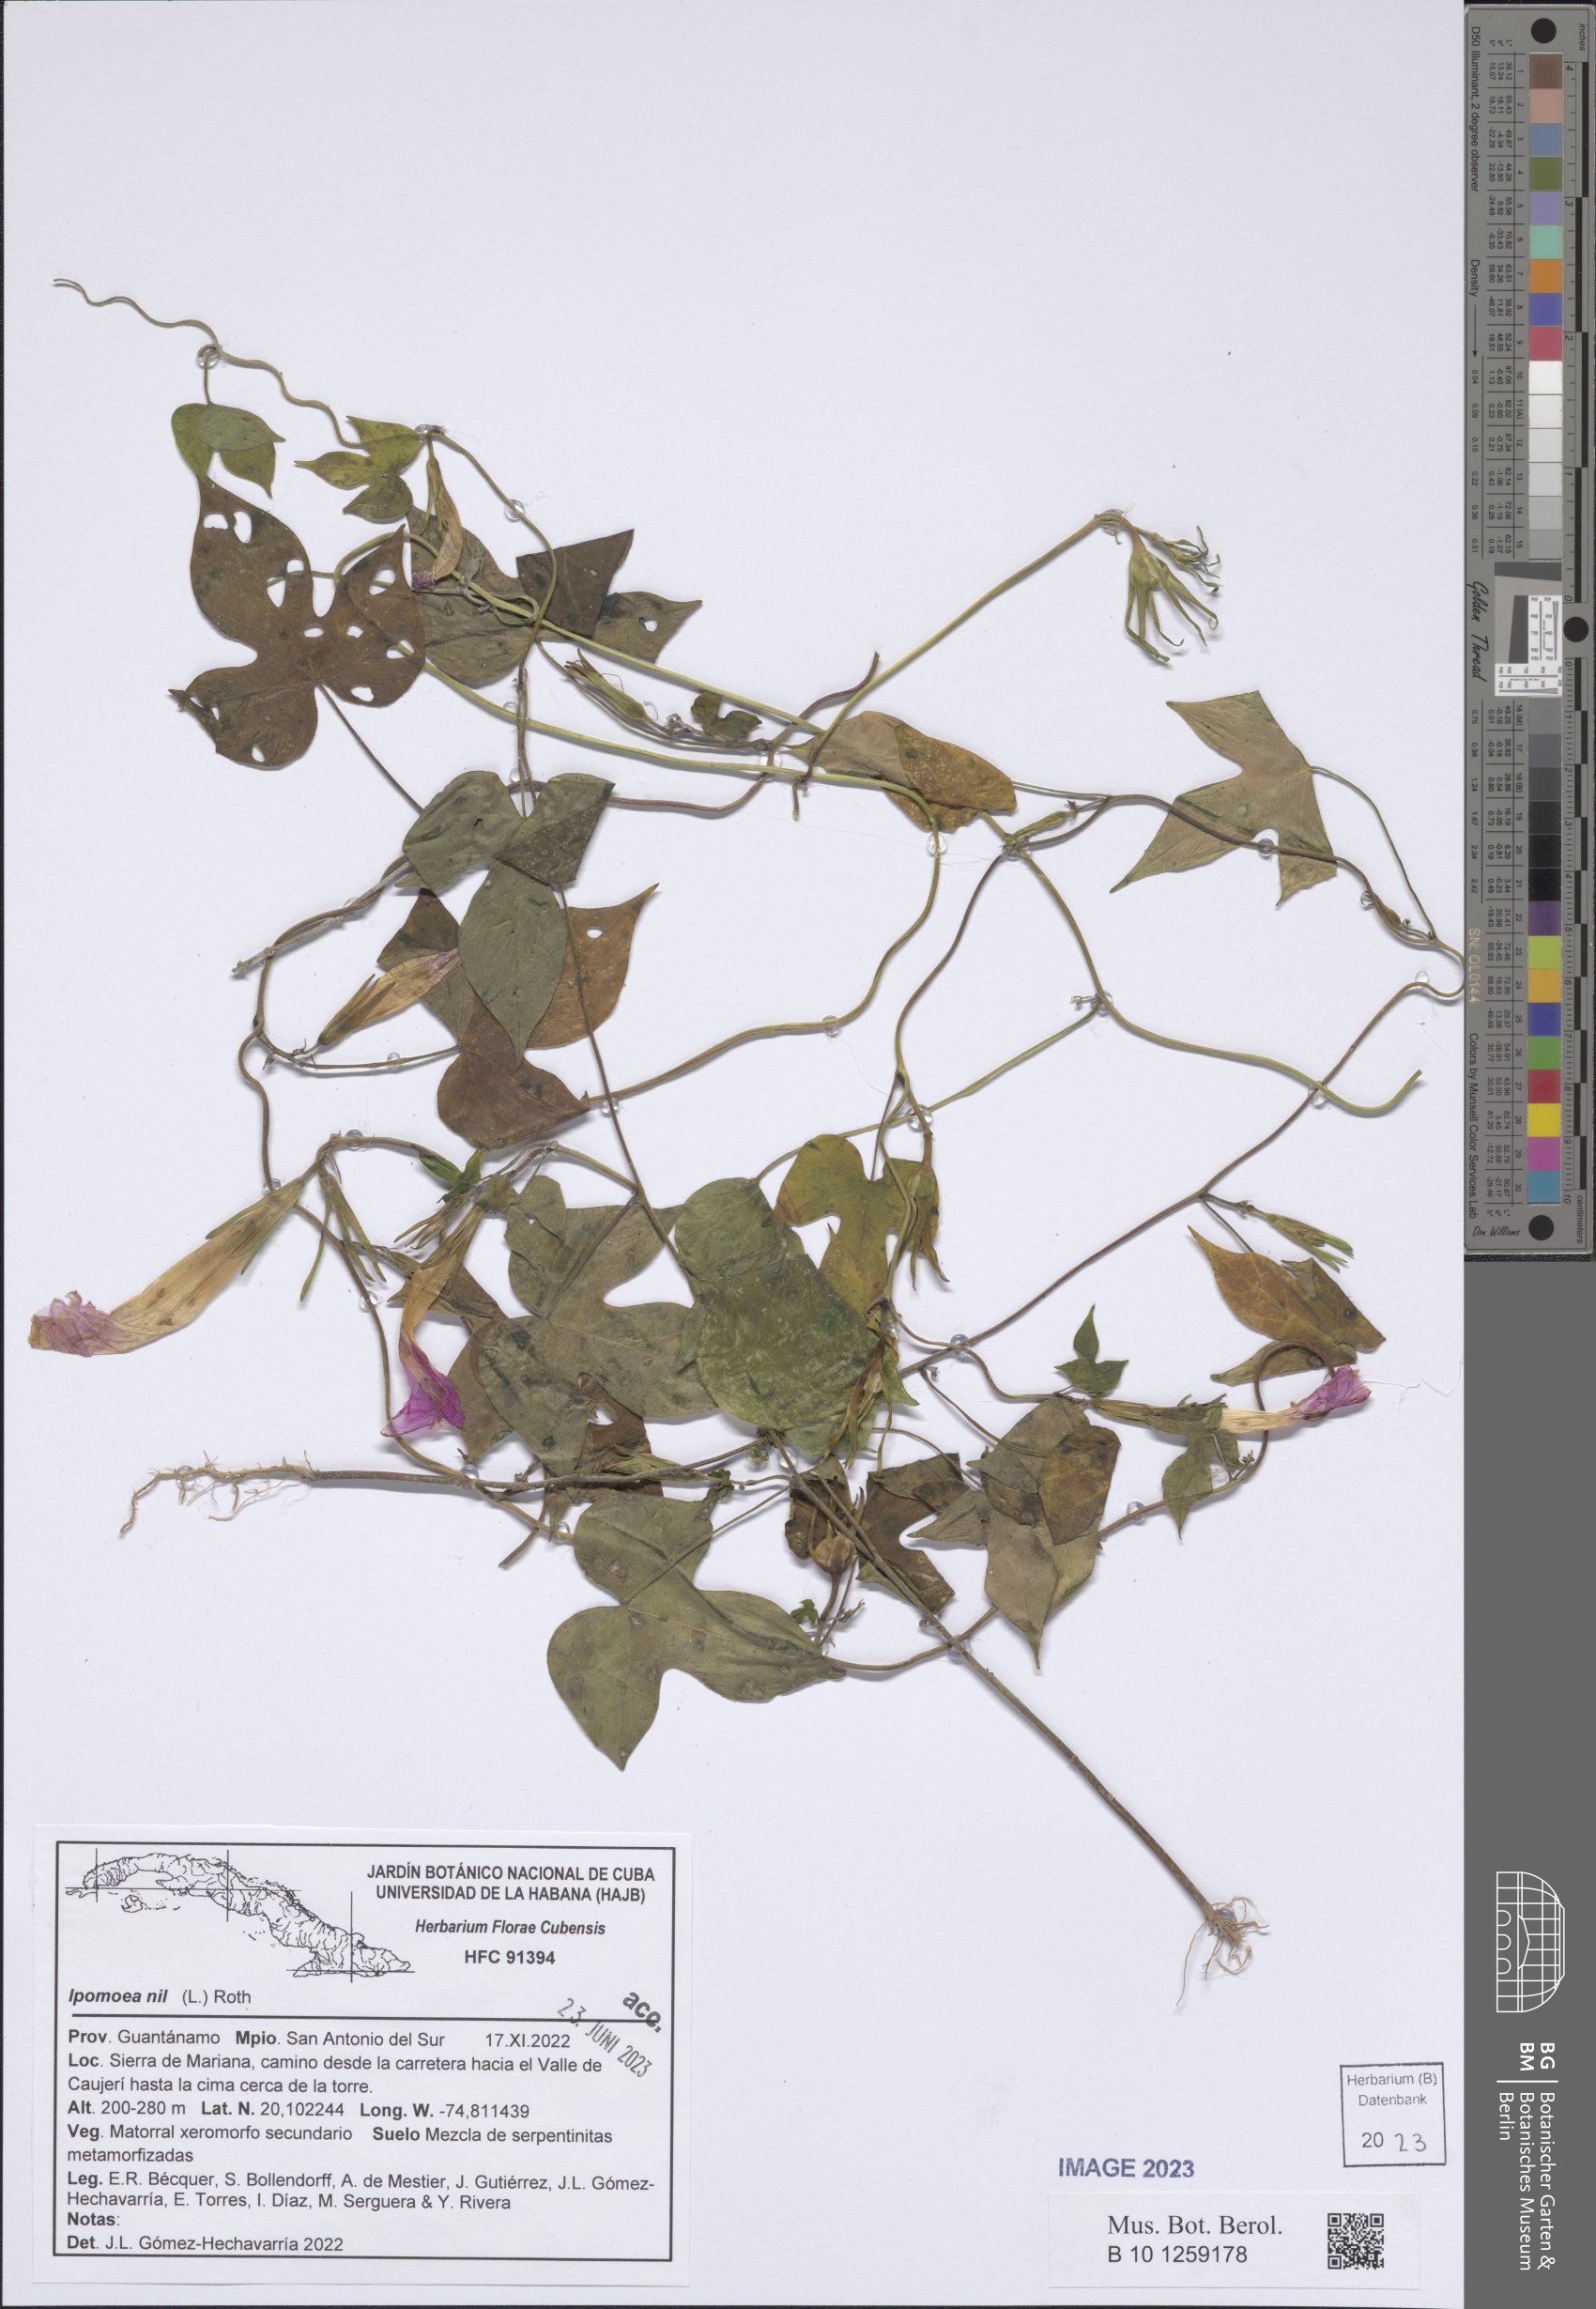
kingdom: Plantae
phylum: Tracheophyta
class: Magnoliopsida
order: Solanales
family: Convolvulaceae
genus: Ipomoea
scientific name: Ipomoea nil
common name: Japanese morning-glory
